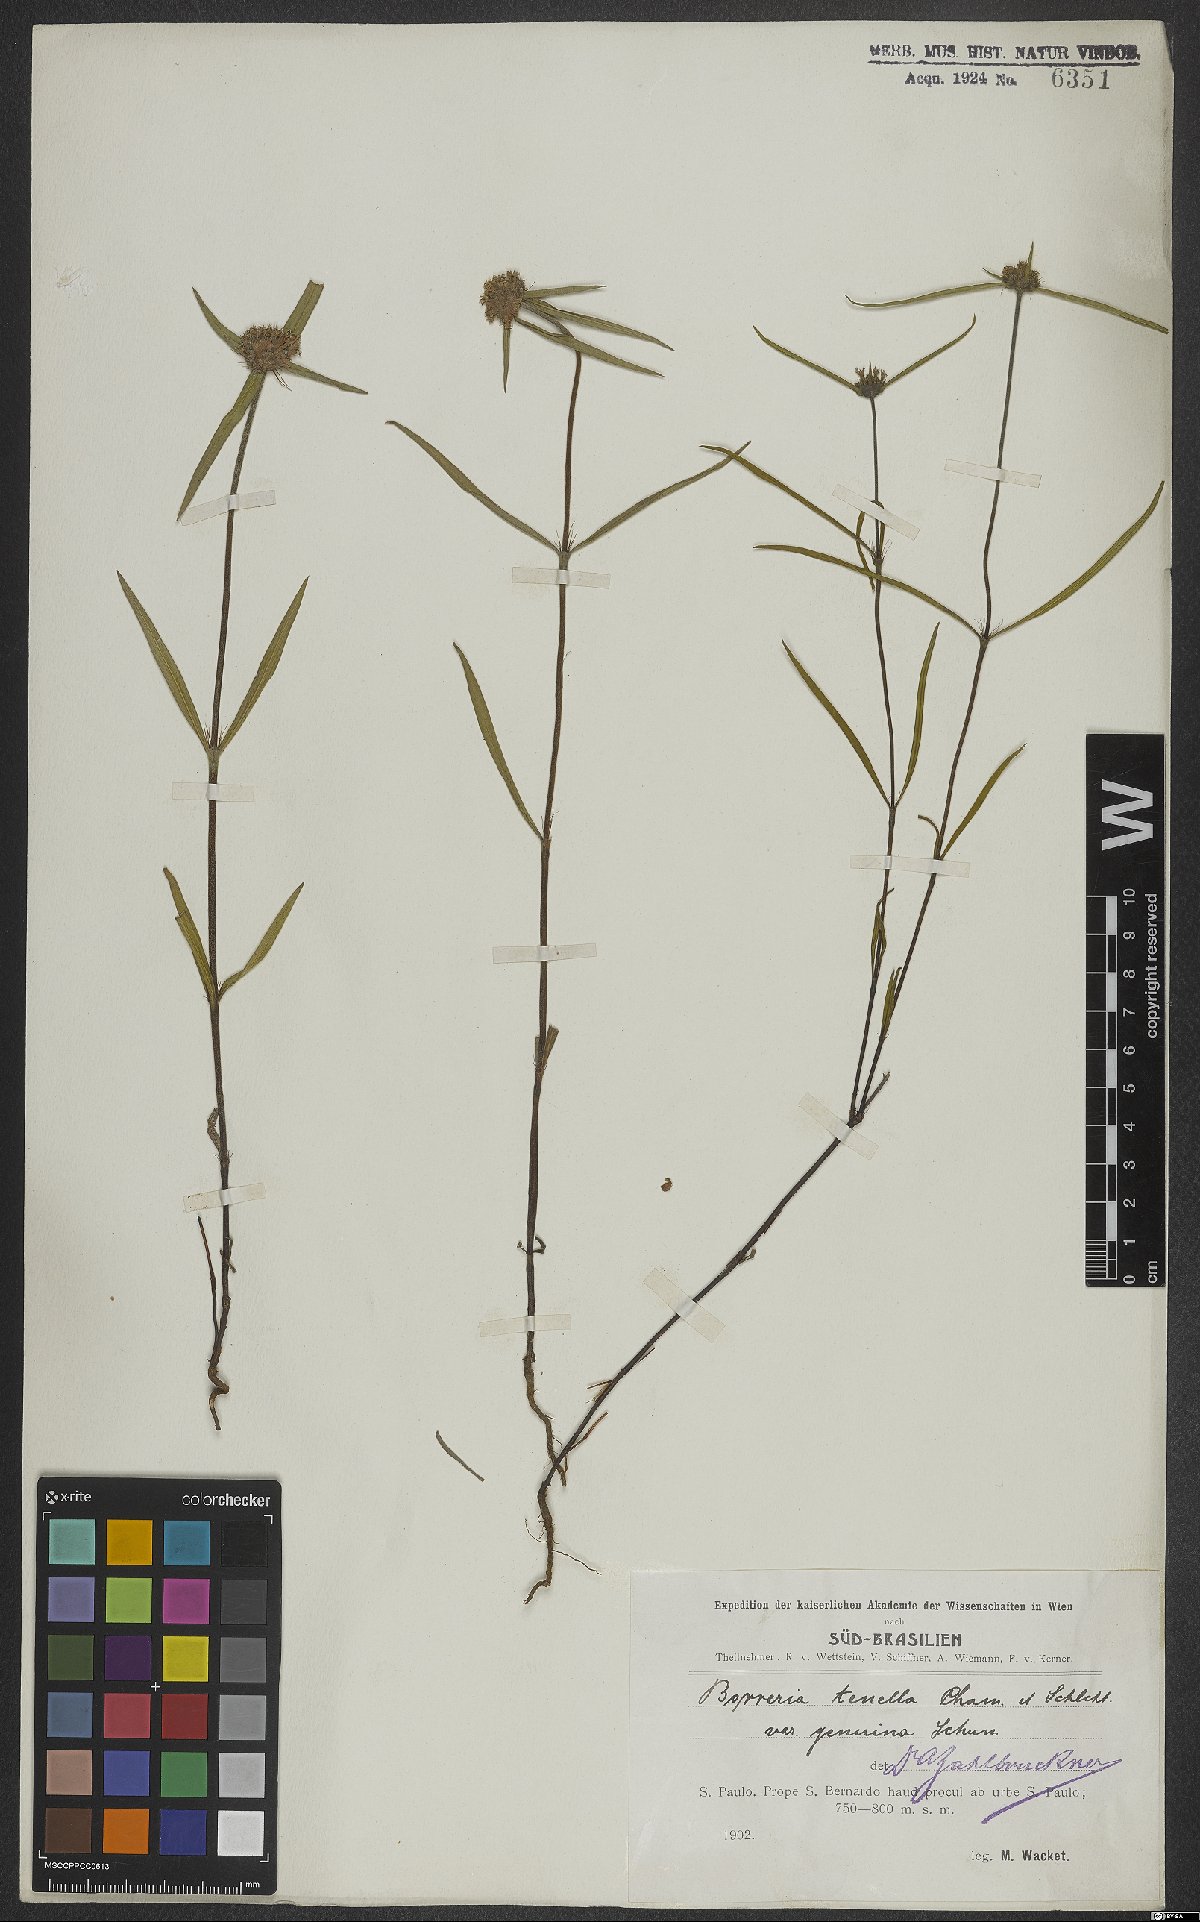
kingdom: Plantae
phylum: Tracheophyta
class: Magnoliopsida
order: Gentianales
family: Rubiaceae
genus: Spermacoce
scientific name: Spermacoce orinocensis
